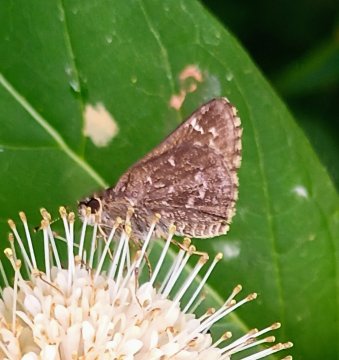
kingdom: Animalia
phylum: Arthropoda
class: Insecta
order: Lepidoptera
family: Hesperiidae
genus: Mastor
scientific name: Mastor celia
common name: Bell's Roadside-Skipper
